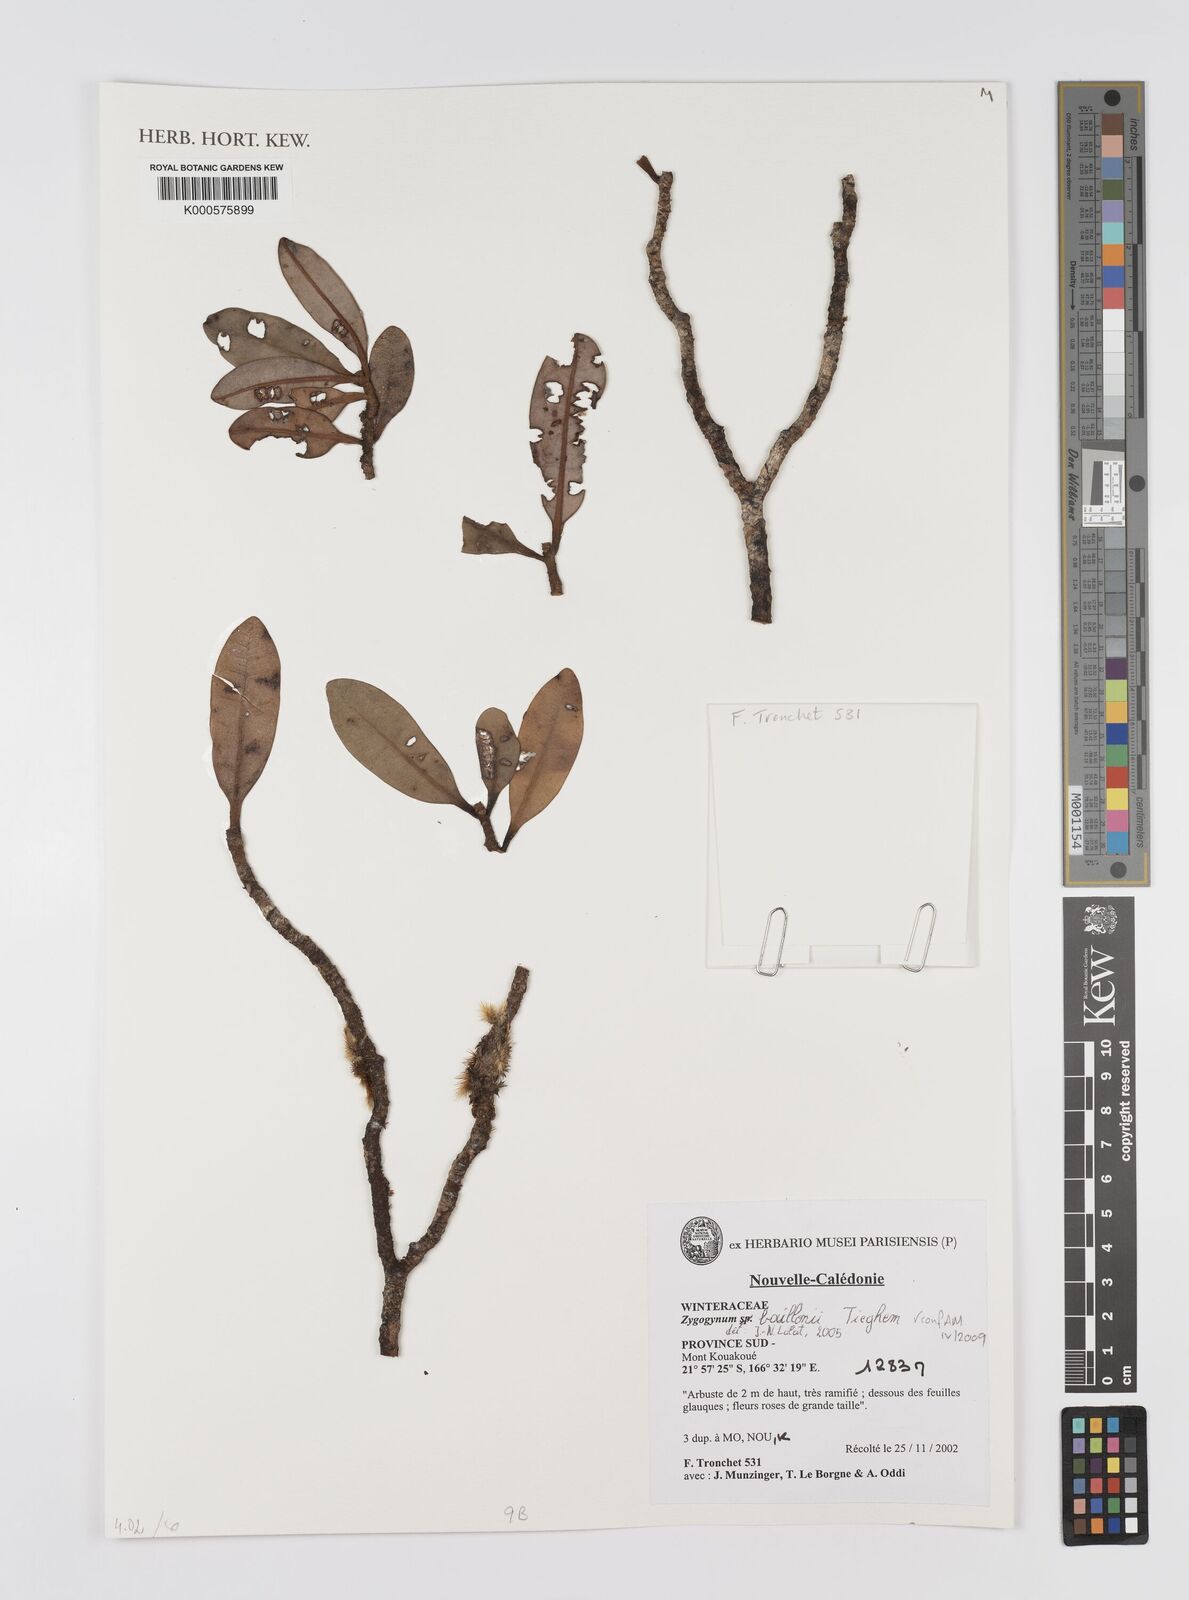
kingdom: Plantae
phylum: Tracheophyta
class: Magnoliopsida
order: Canellales
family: Winteraceae
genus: Zygogynum
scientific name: Zygogynum baillonii
